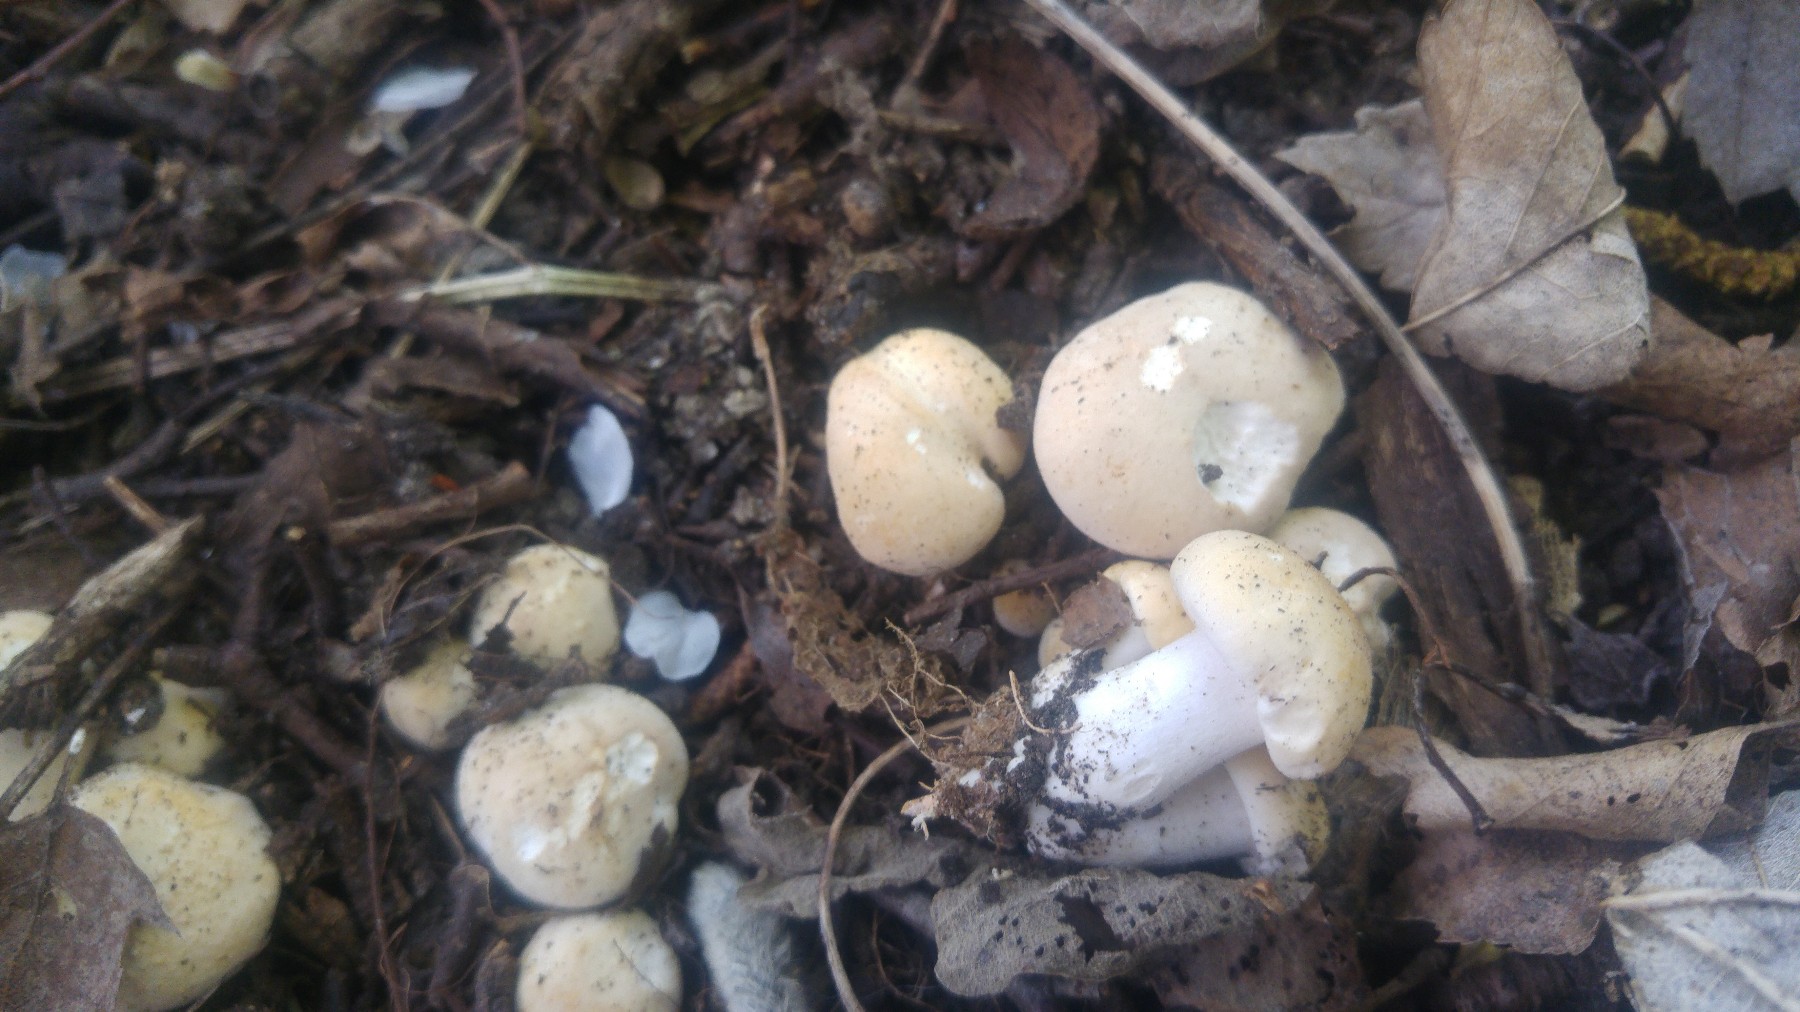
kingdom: Fungi
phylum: Basidiomycota
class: Agaricomycetes
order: Agaricales
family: Lyophyllaceae
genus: Calocybe
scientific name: Calocybe gambosa
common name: vårmusseron
